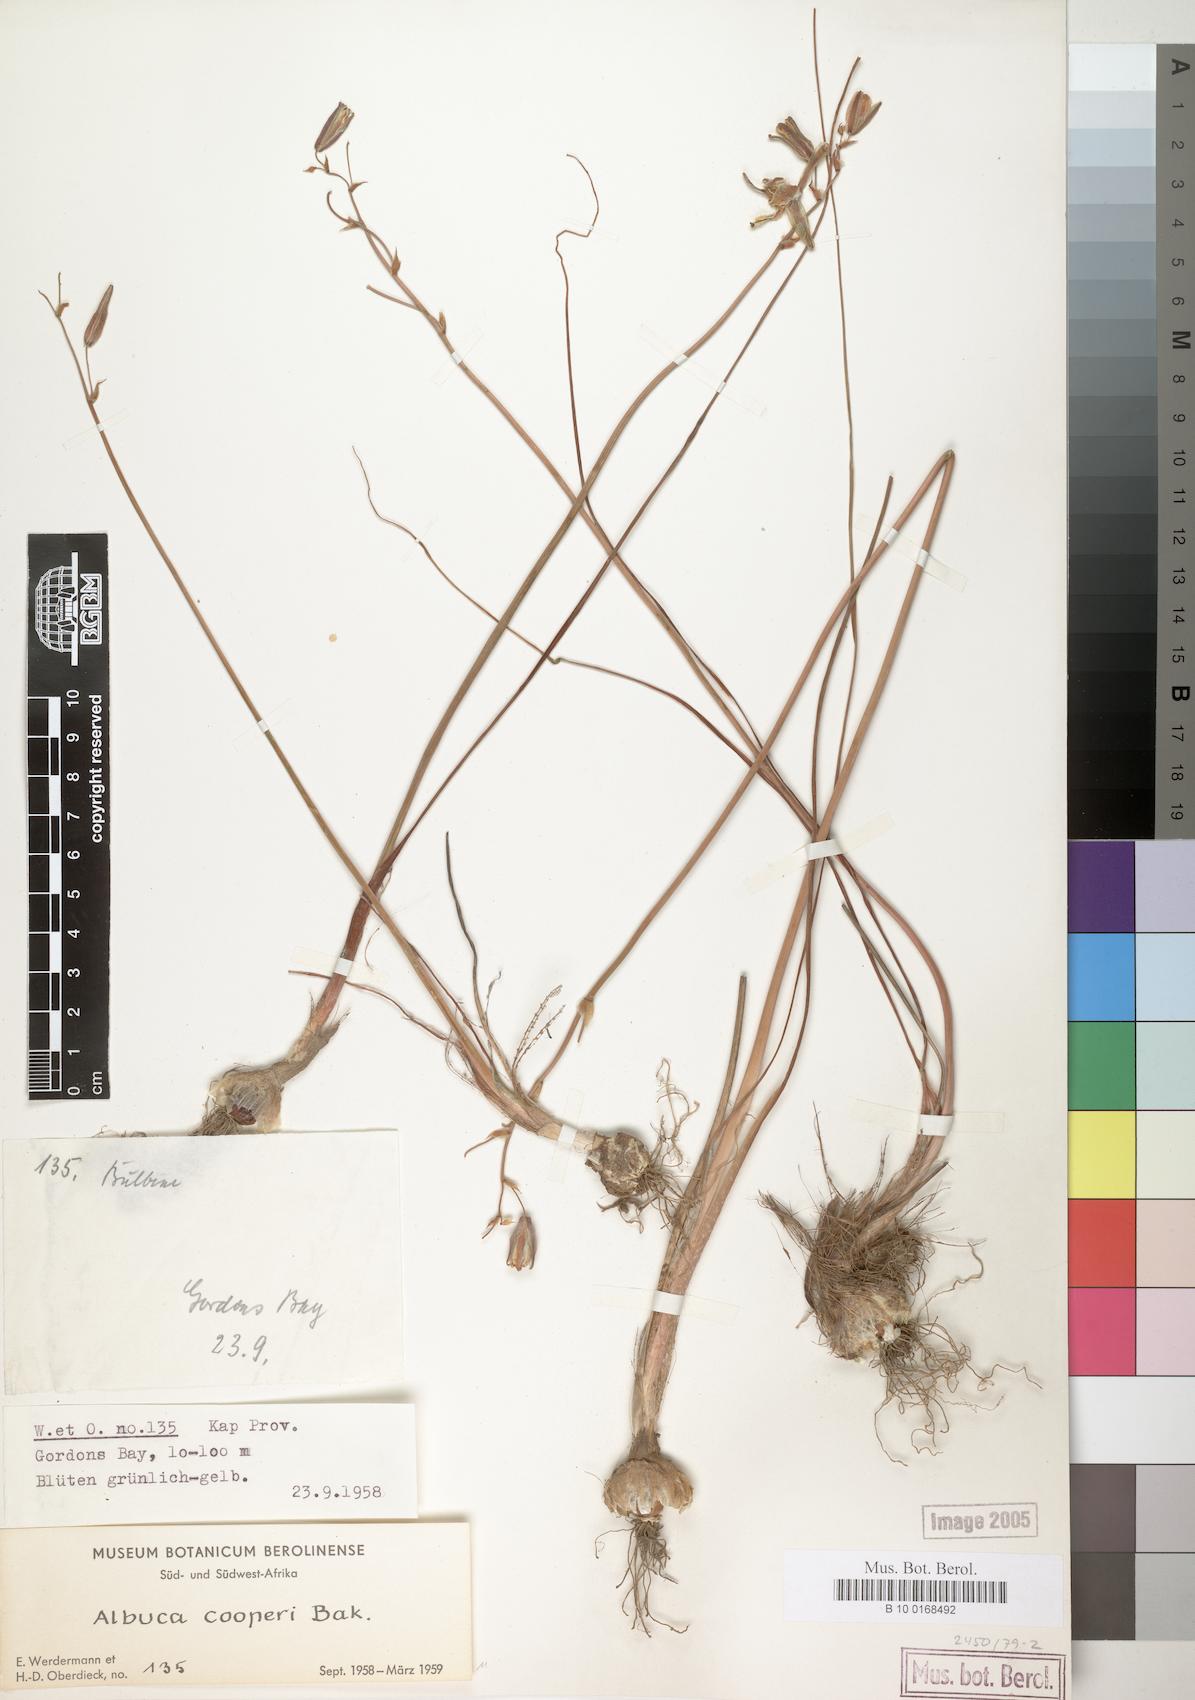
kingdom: Plantae
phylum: Tracheophyta
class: Liliopsida
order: Asparagales
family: Asparagaceae
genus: Albuca
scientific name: Albuca cooperi
